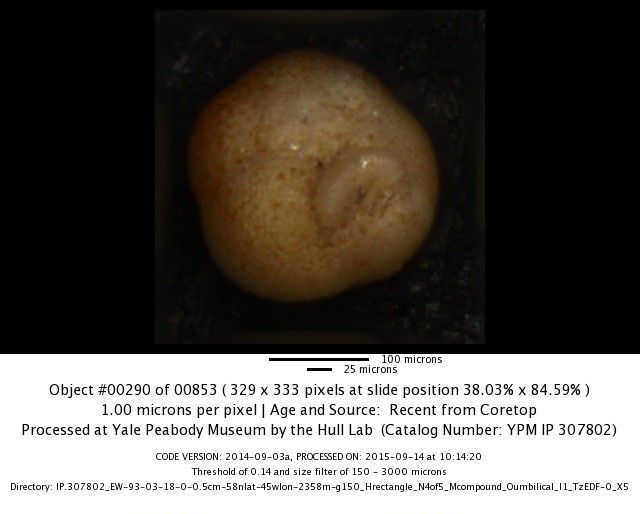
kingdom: Chromista
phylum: Foraminifera
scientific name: Foraminifera
